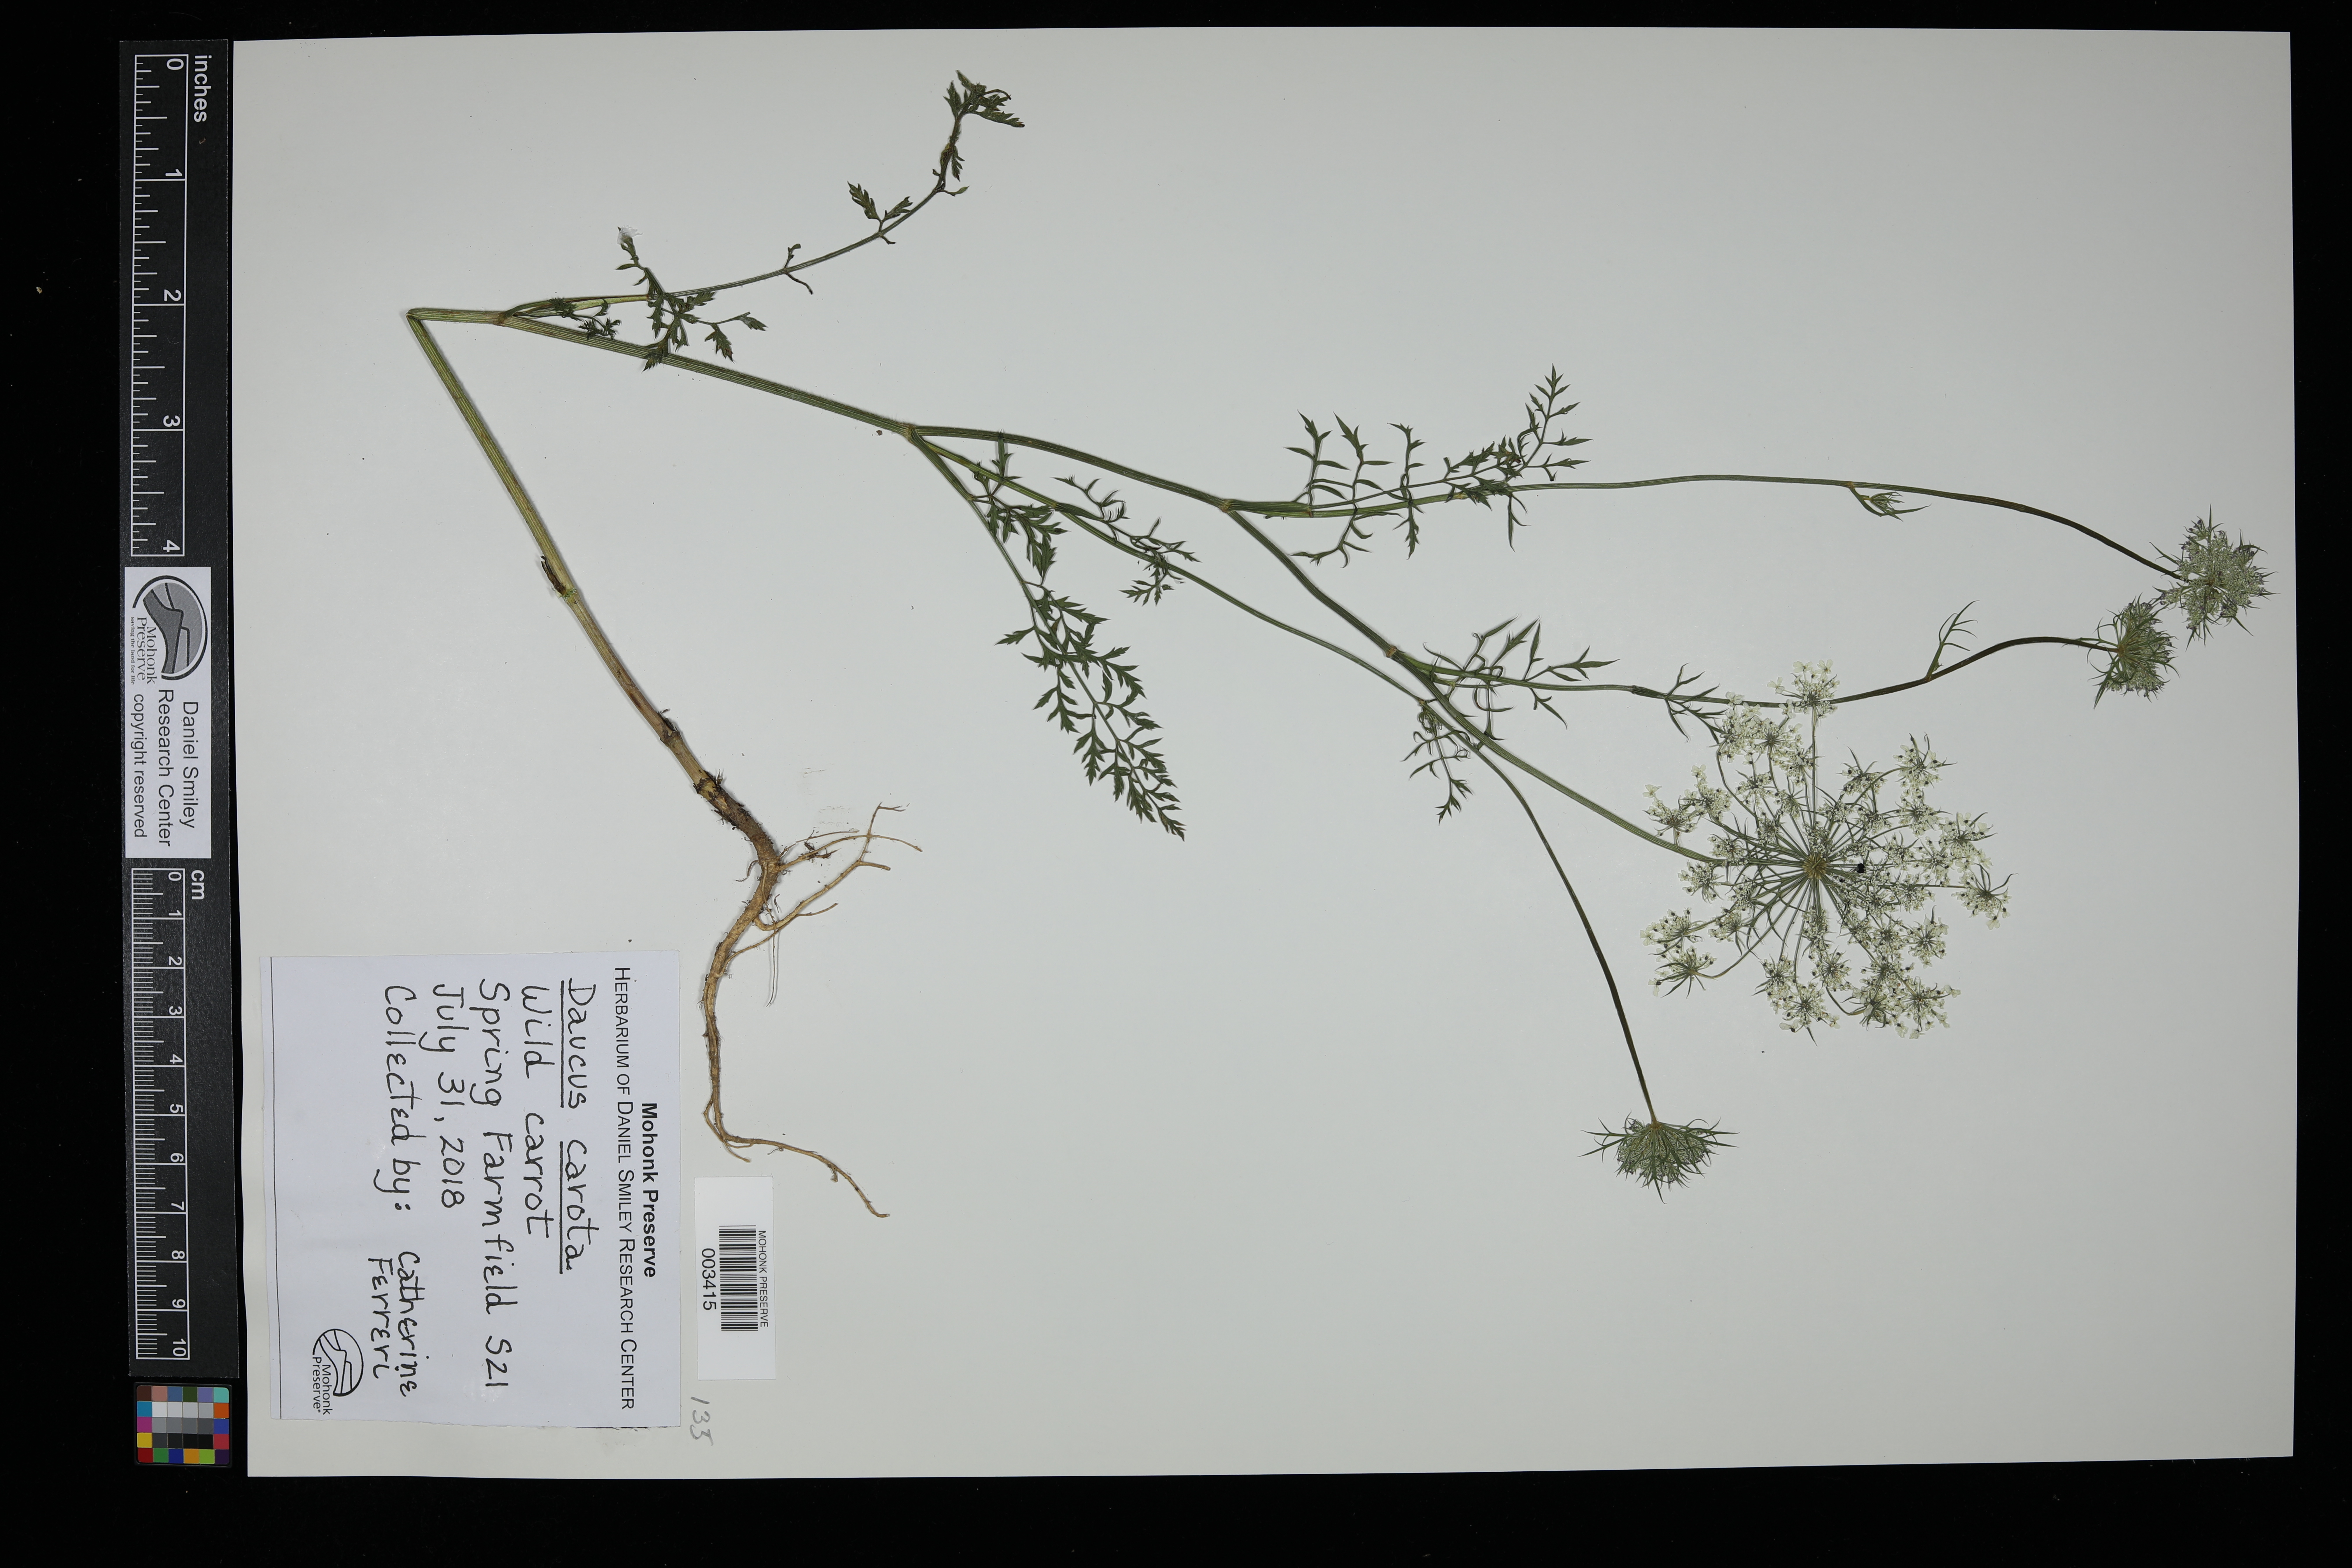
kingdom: Plantae
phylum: Tracheophyta
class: Magnoliopsida
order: Apiales
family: Apiaceae
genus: Daucus
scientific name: Daucus carota
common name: Wild carrot
